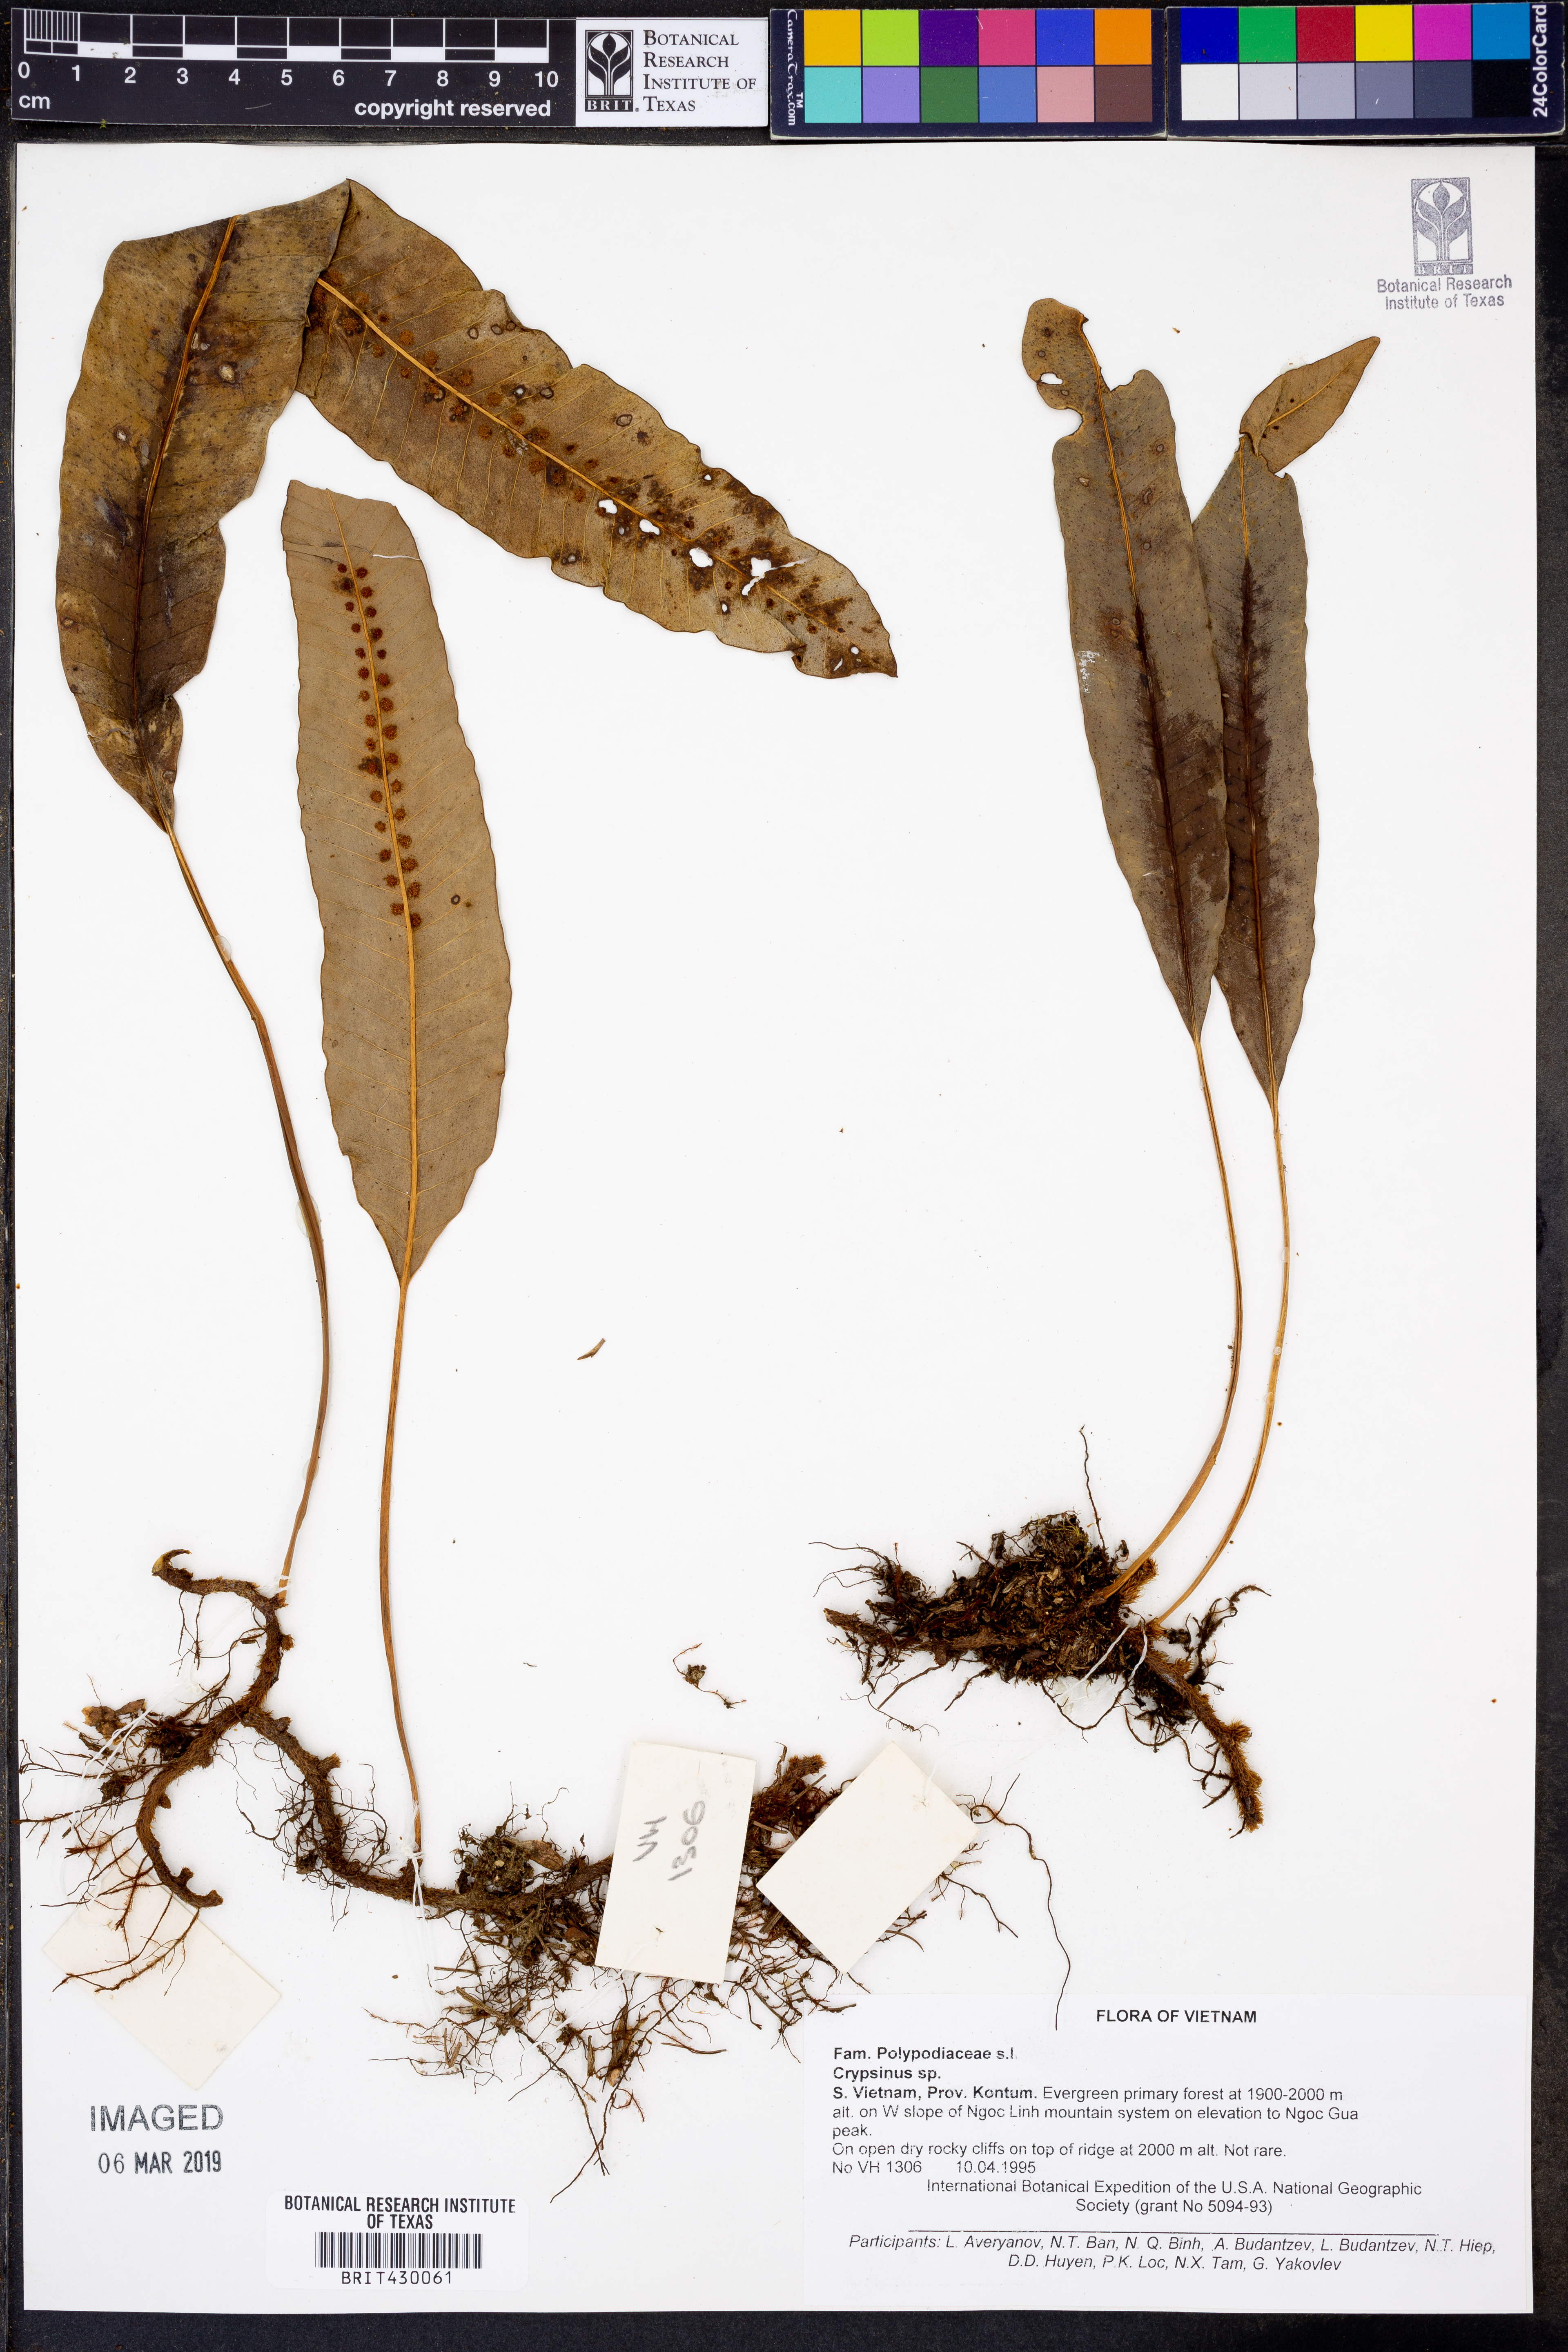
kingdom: Animalia
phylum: Arthropoda
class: Insecta
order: Hemiptera
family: Pentatomidae
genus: Crypsinus
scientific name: Crypsinus
